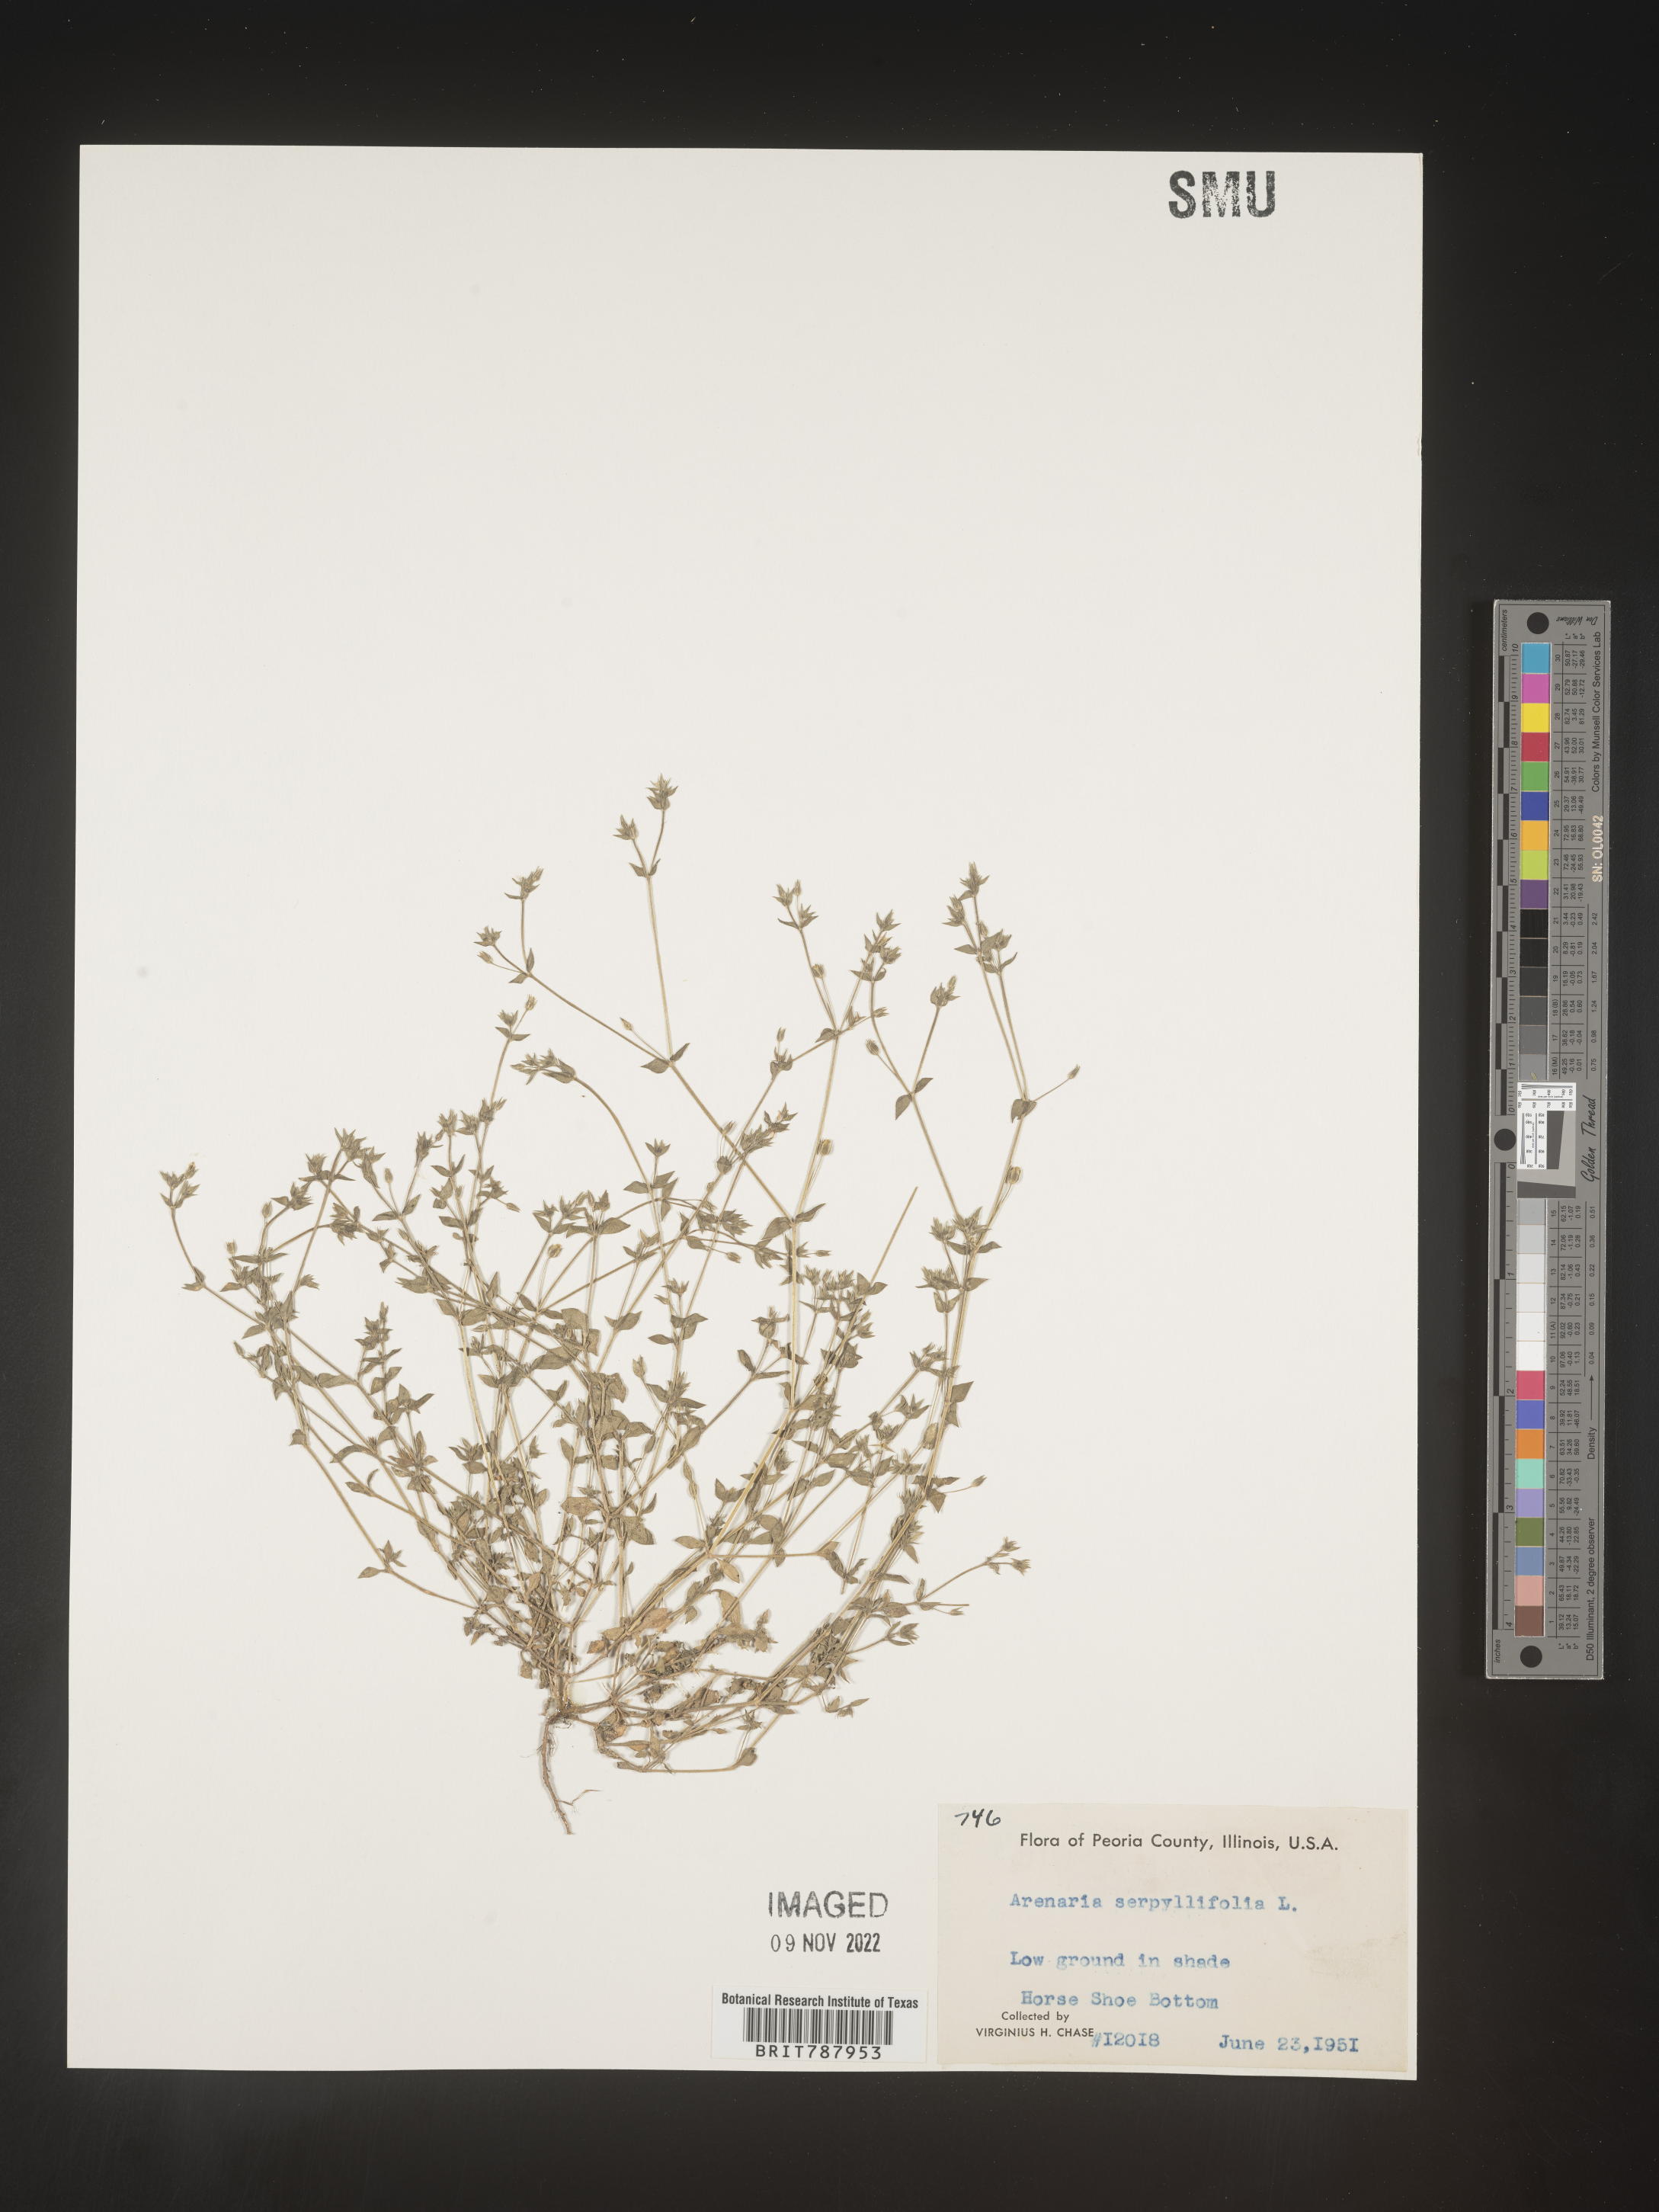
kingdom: Plantae
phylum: Tracheophyta
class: Magnoliopsida
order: Caryophyllales
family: Caryophyllaceae
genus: Arenaria
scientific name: Arenaria serpyllifolia
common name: Thyme-leaved sandwort
